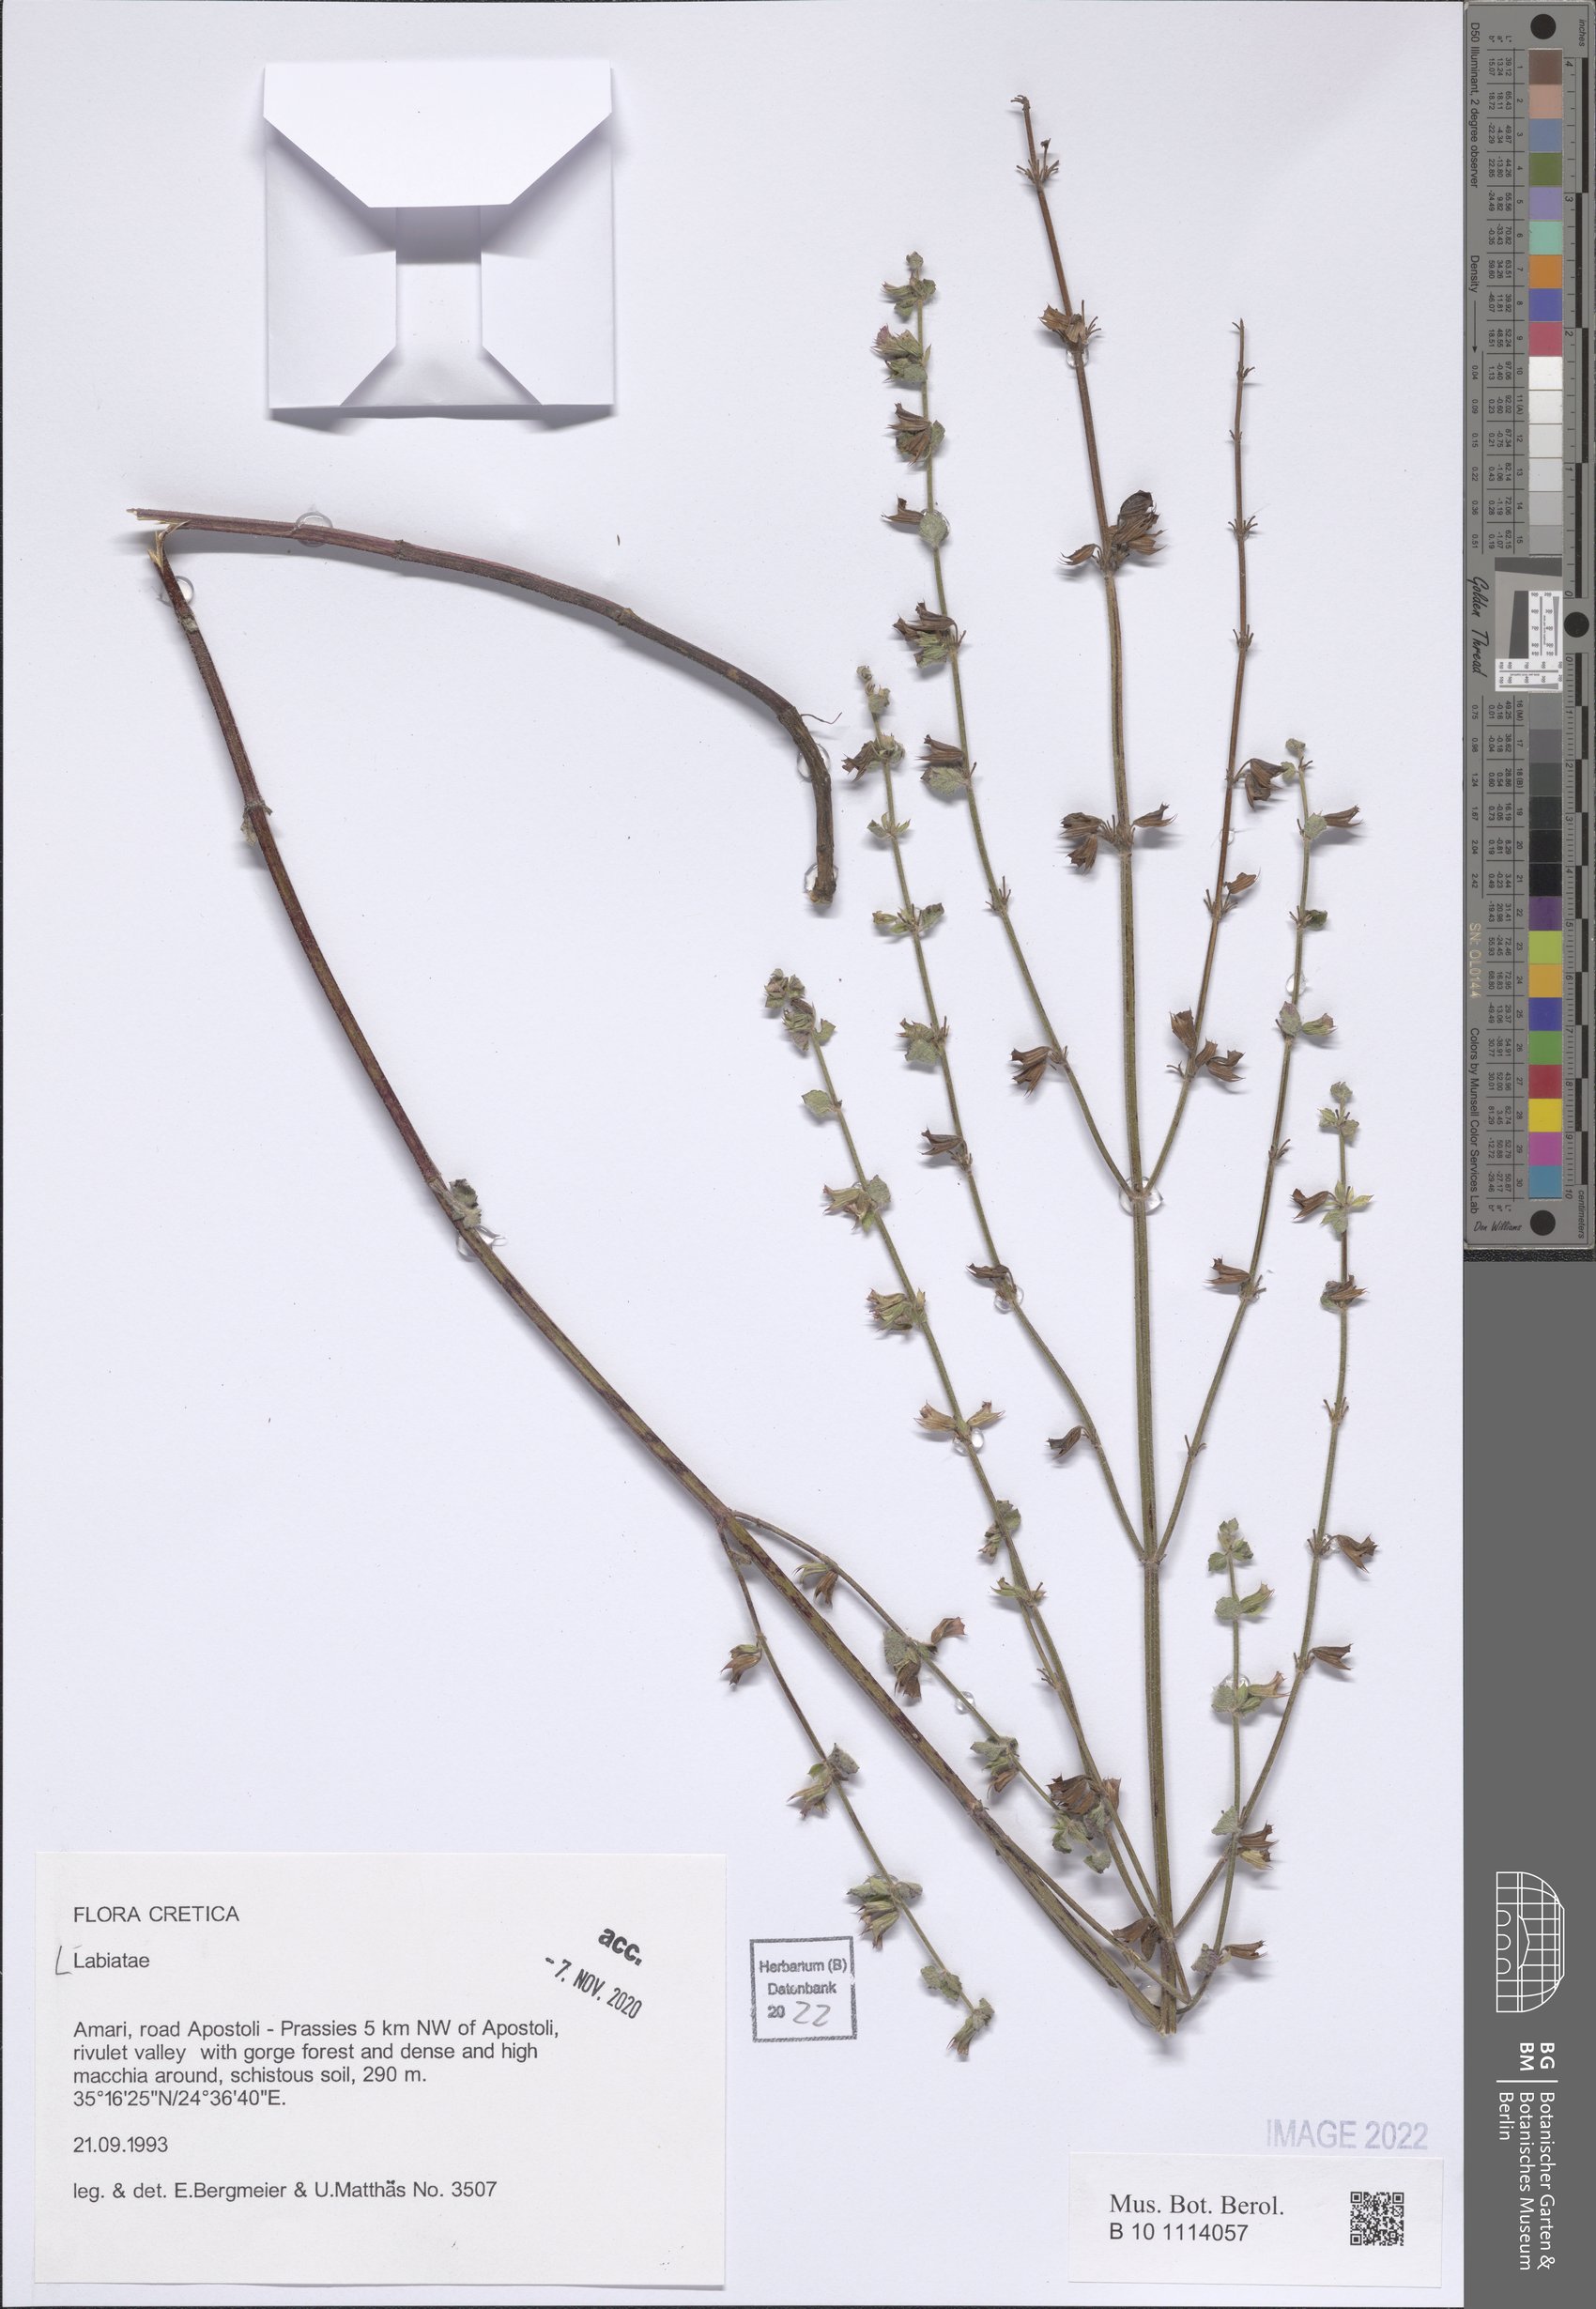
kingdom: Plantae
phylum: Tracheophyta
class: Magnoliopsida
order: Lamiales
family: Lamiaceae
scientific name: Lamiaceae
